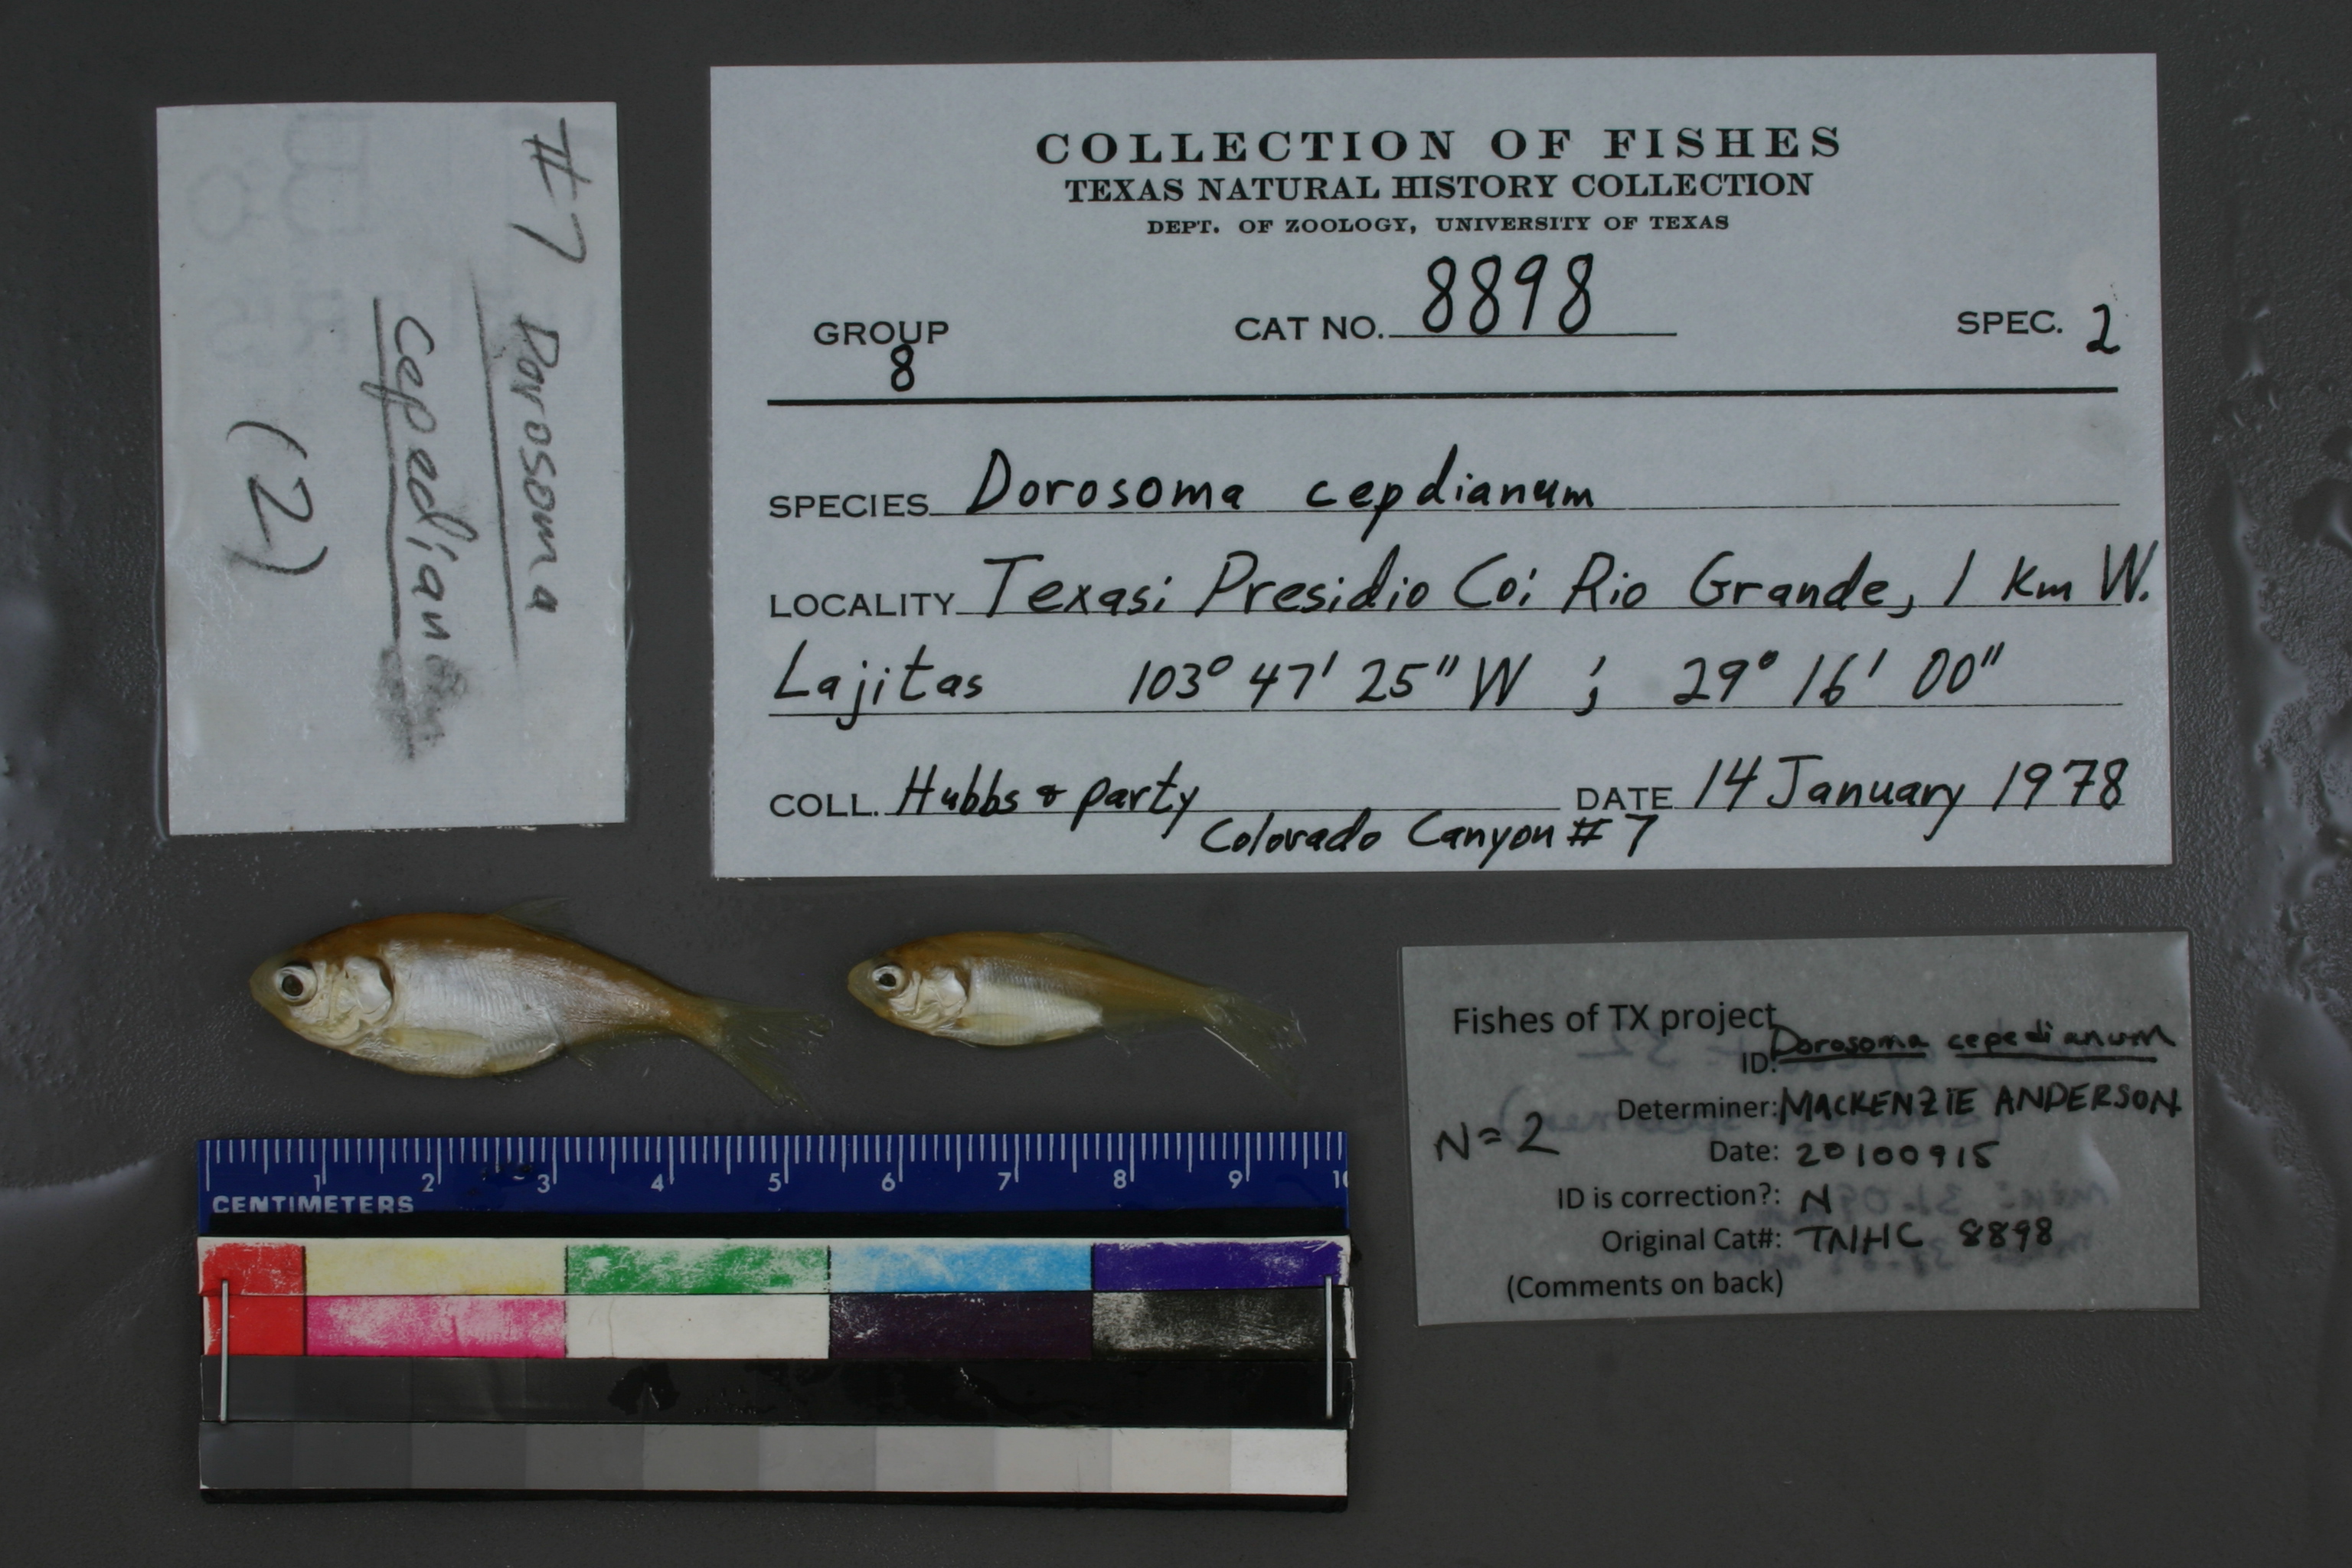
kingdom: Animalia
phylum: Chordata
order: Clupeiformes
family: Clupeidae
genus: Dorosoma
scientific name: Dorosoma cepedianum
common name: Gizzard shad
